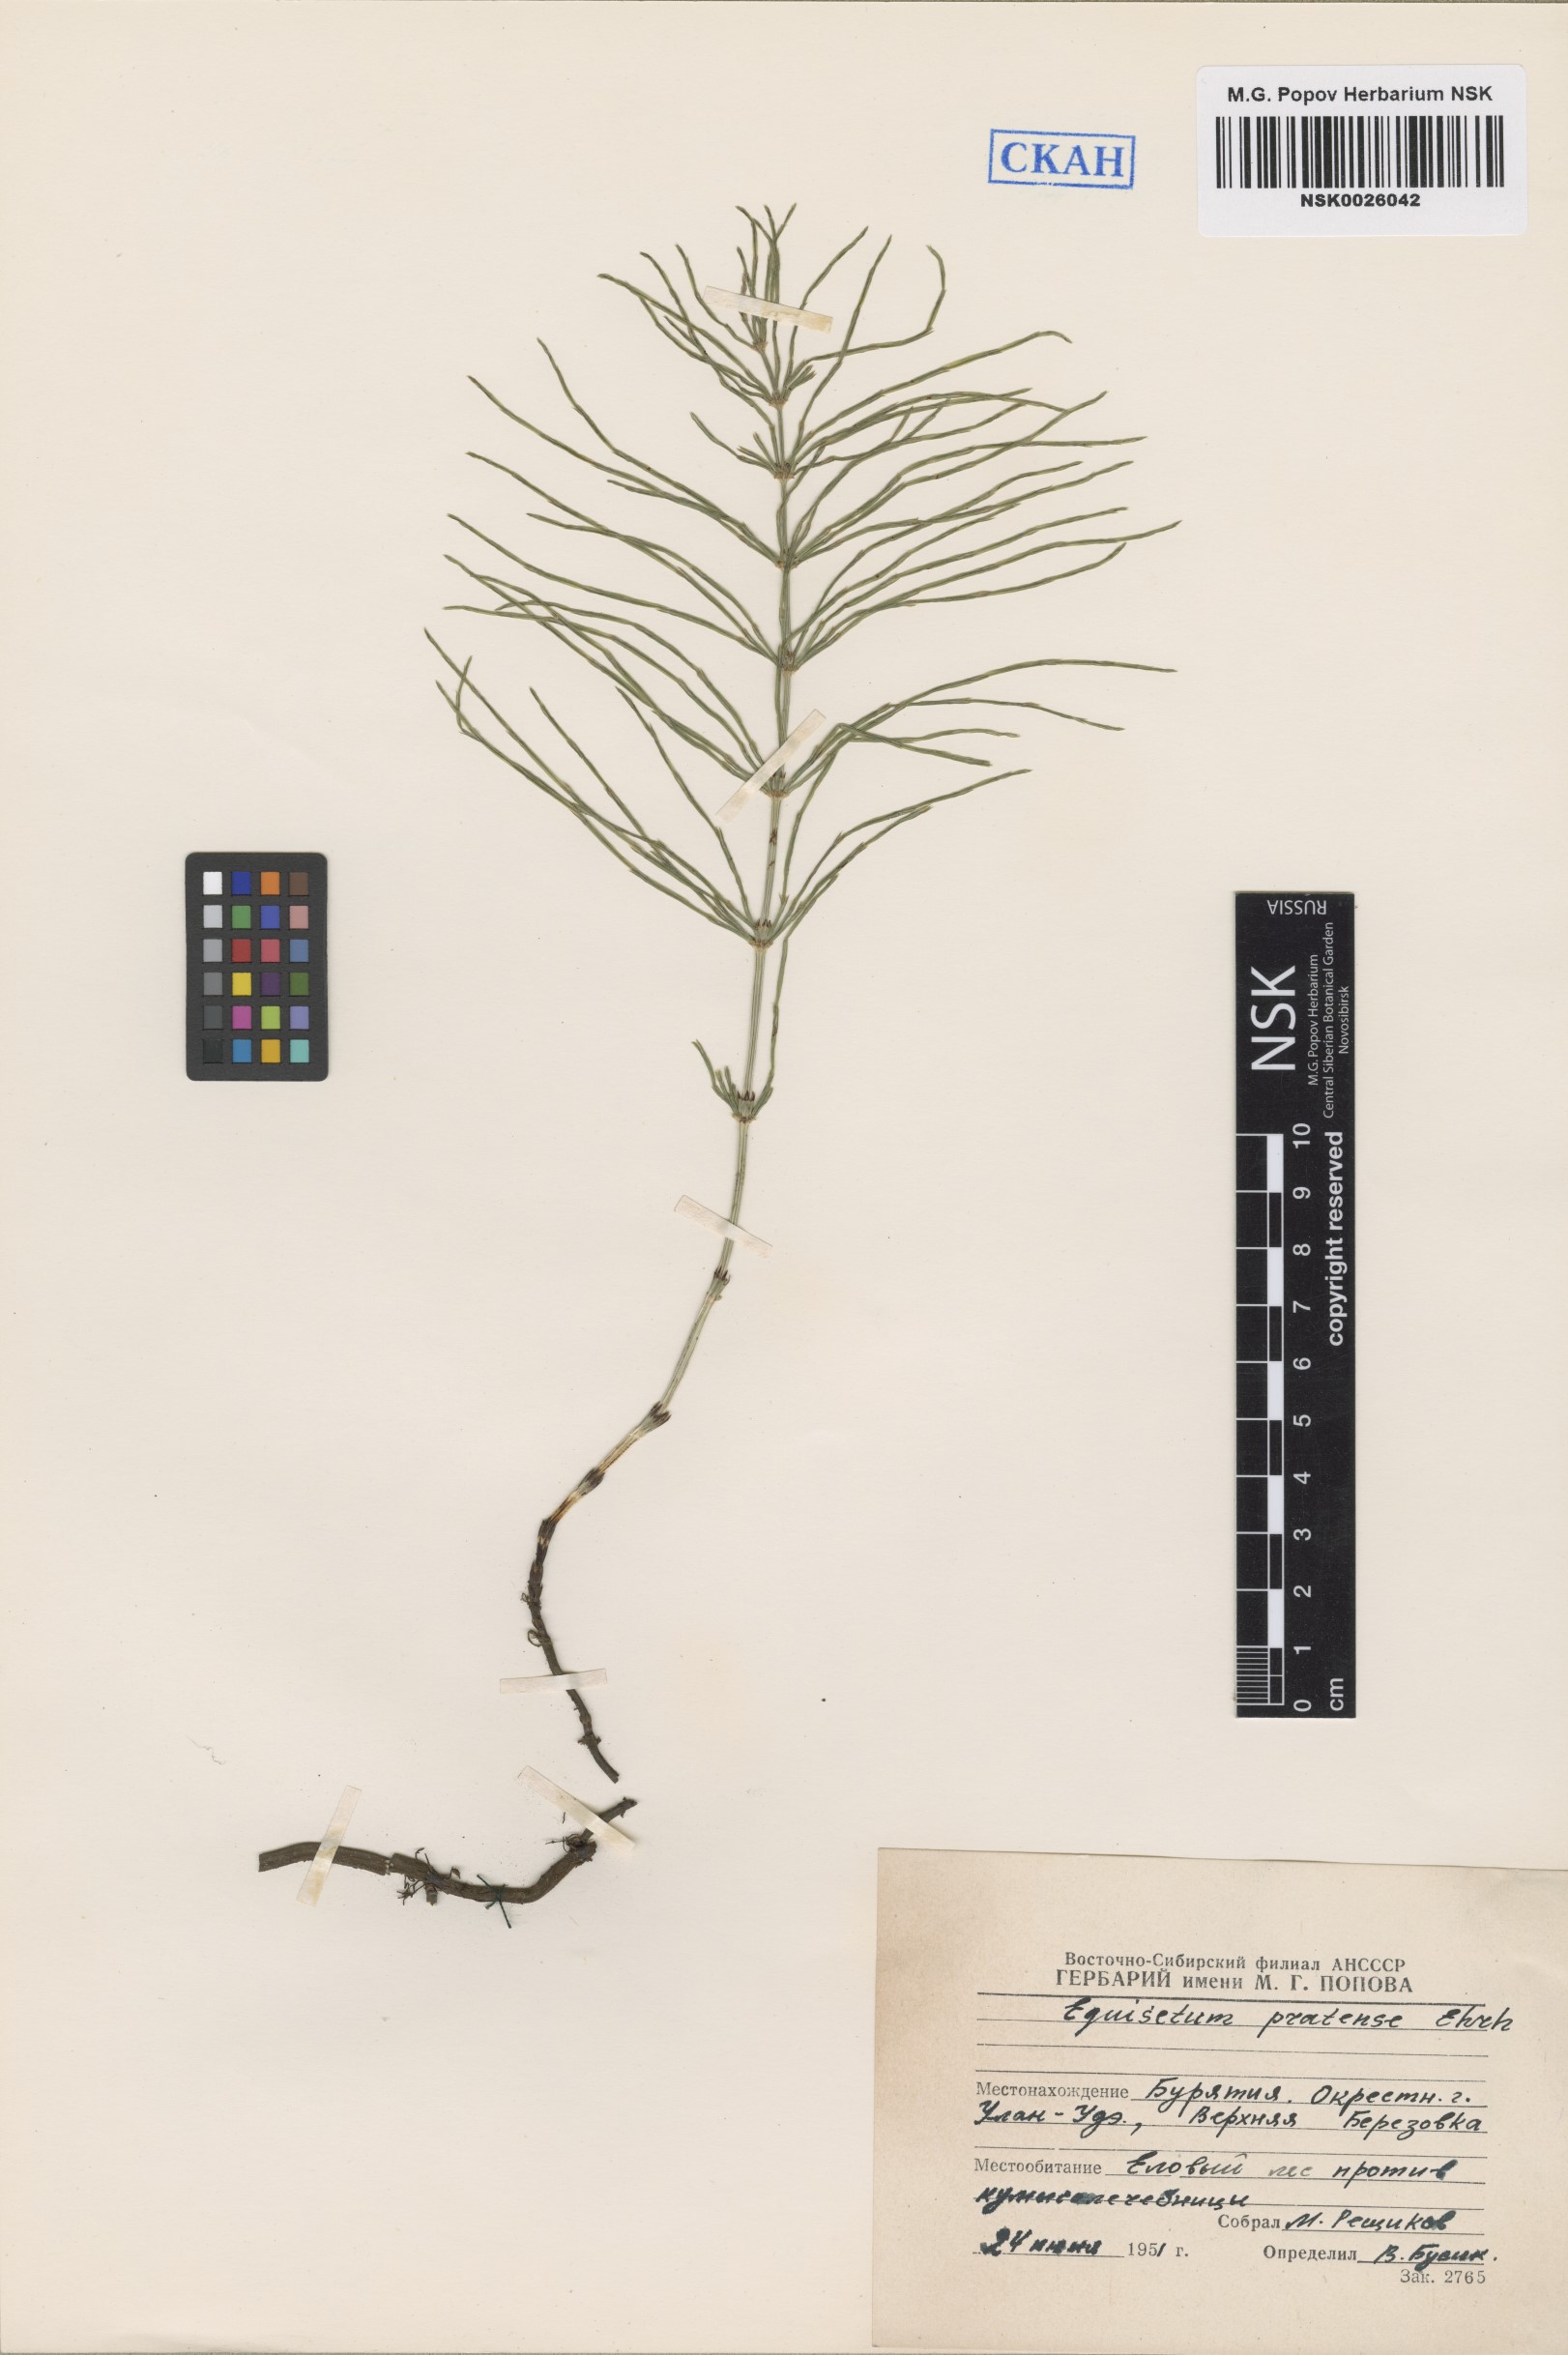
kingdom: Plantae
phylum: Tracheophyta
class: Polypodiopsida
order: Equisetales
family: Equisetaceae
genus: Equisetum
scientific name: Equisetum pratense
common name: Meadow horsetail
